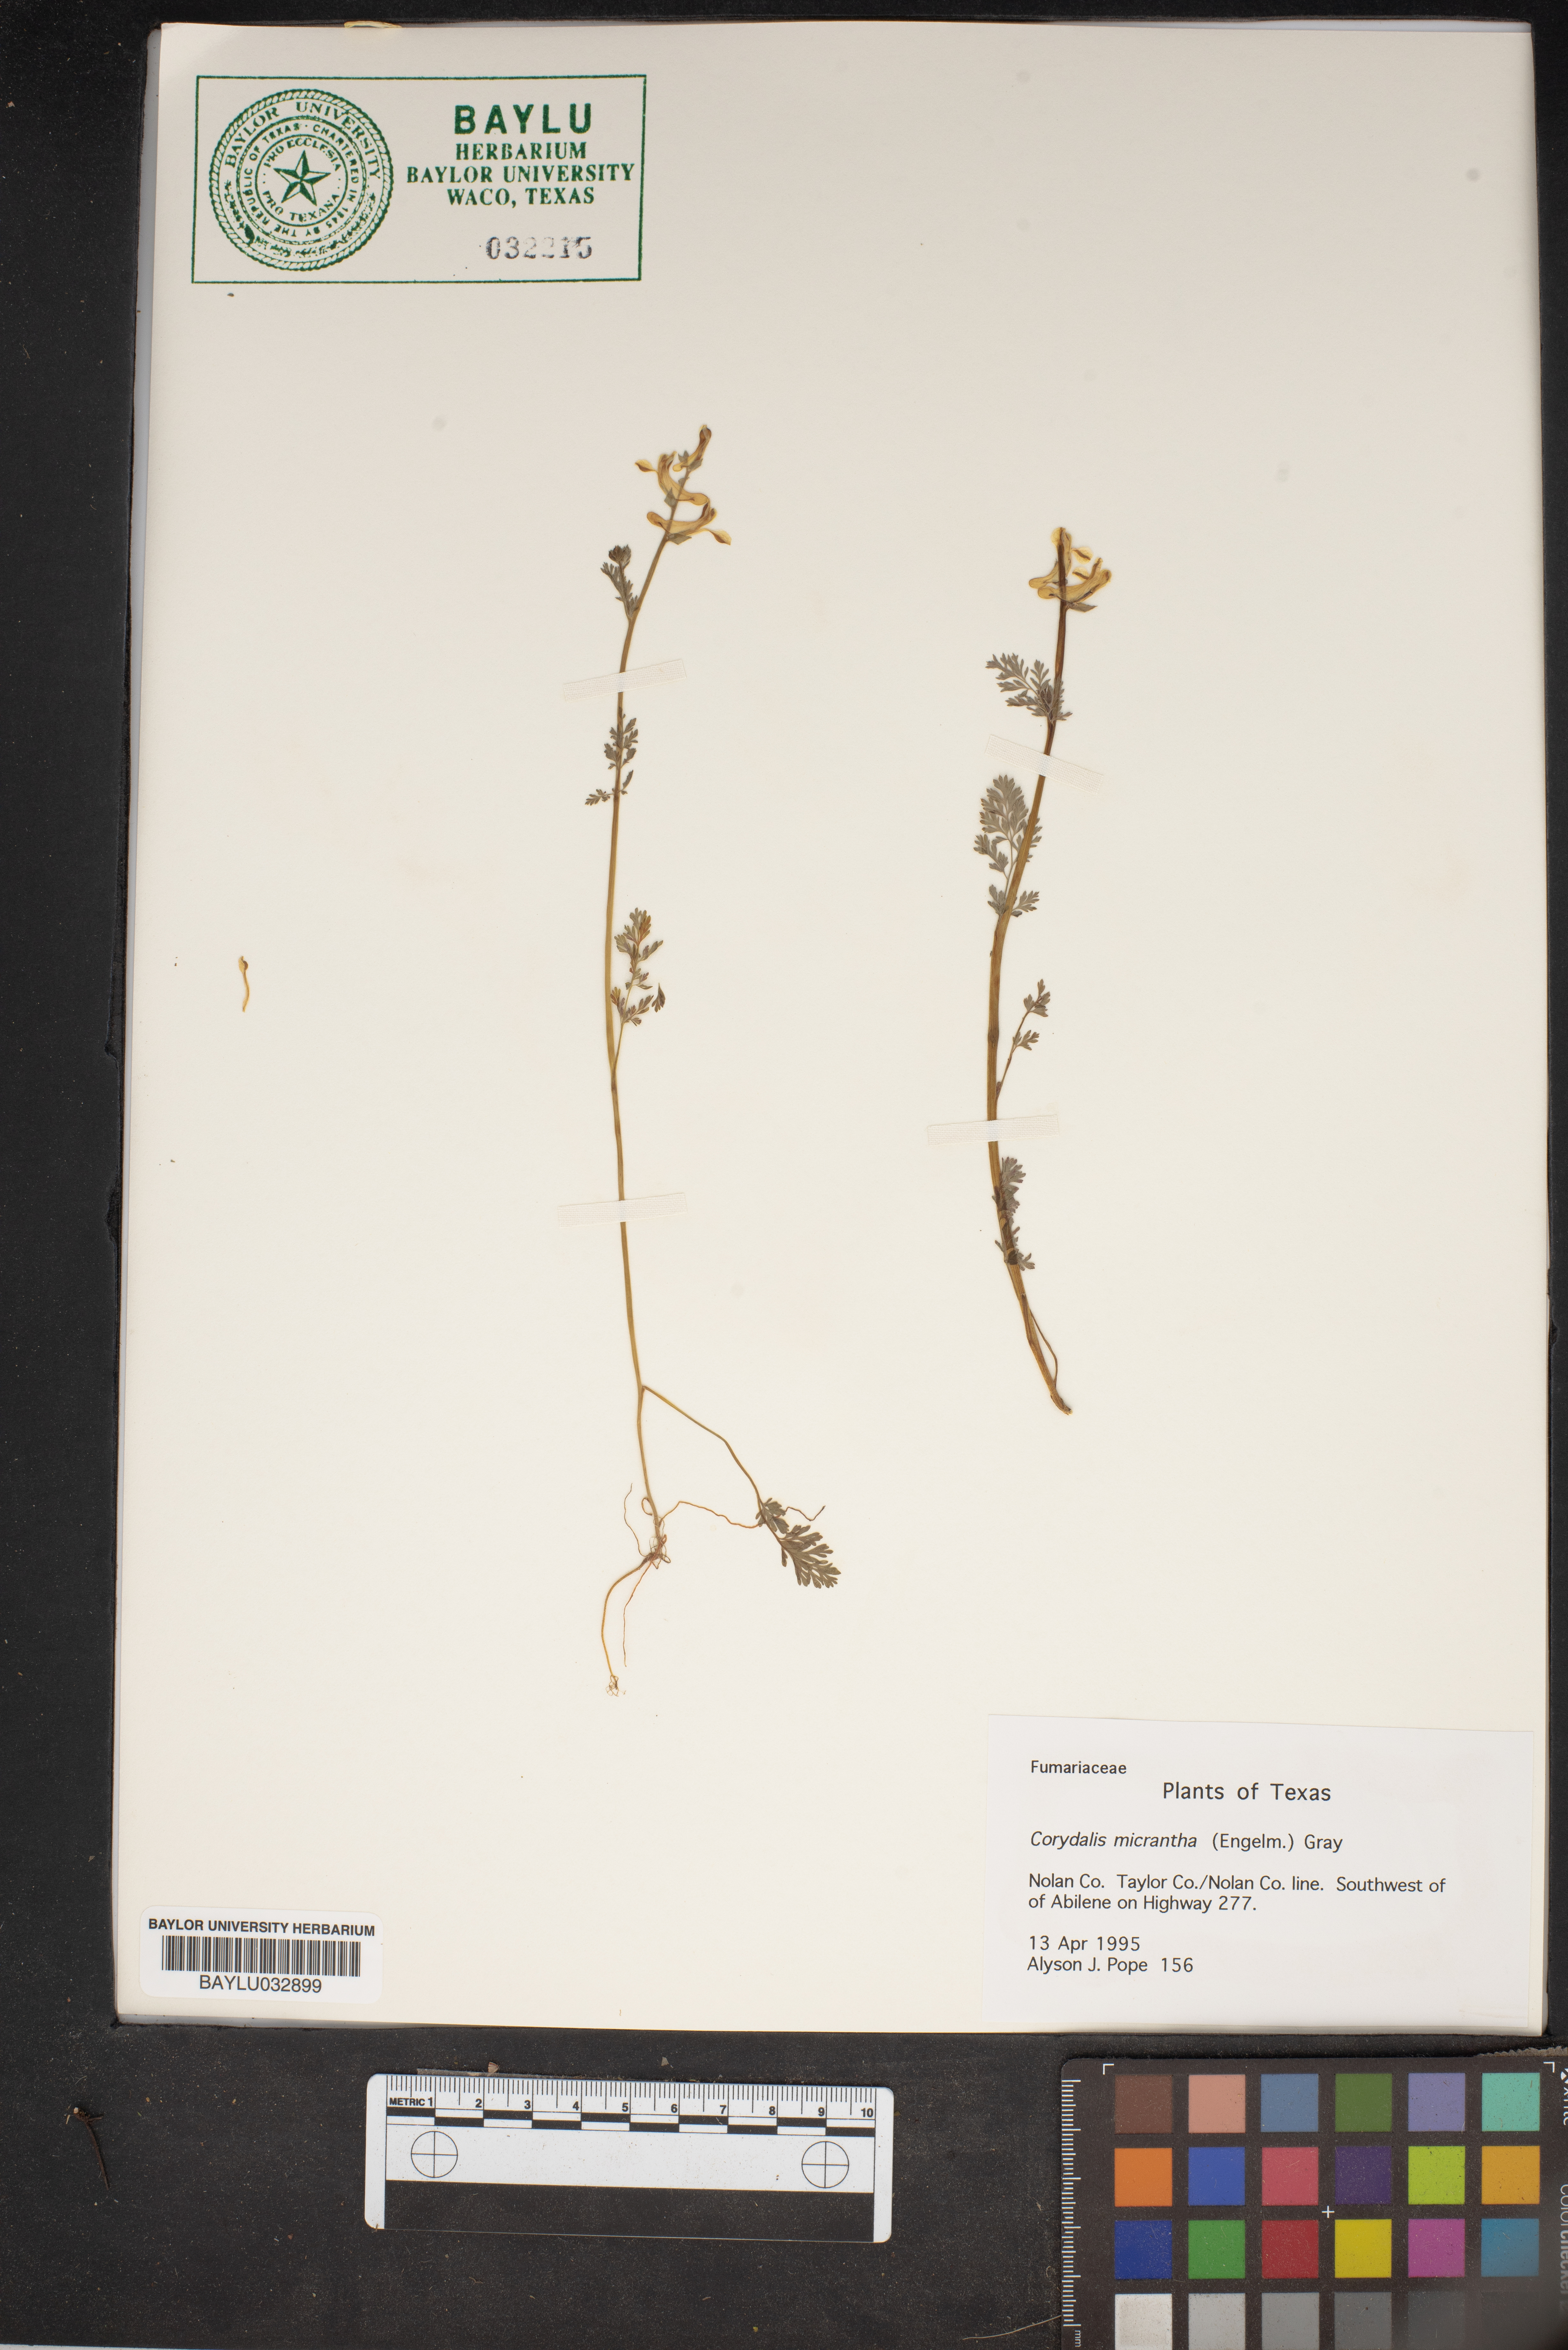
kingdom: Plantae
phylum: Tracheophyta
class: Magnoliopsida
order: Ranunculales
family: Papaveraceae
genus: Corydalis
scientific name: Corydalis micrantha
